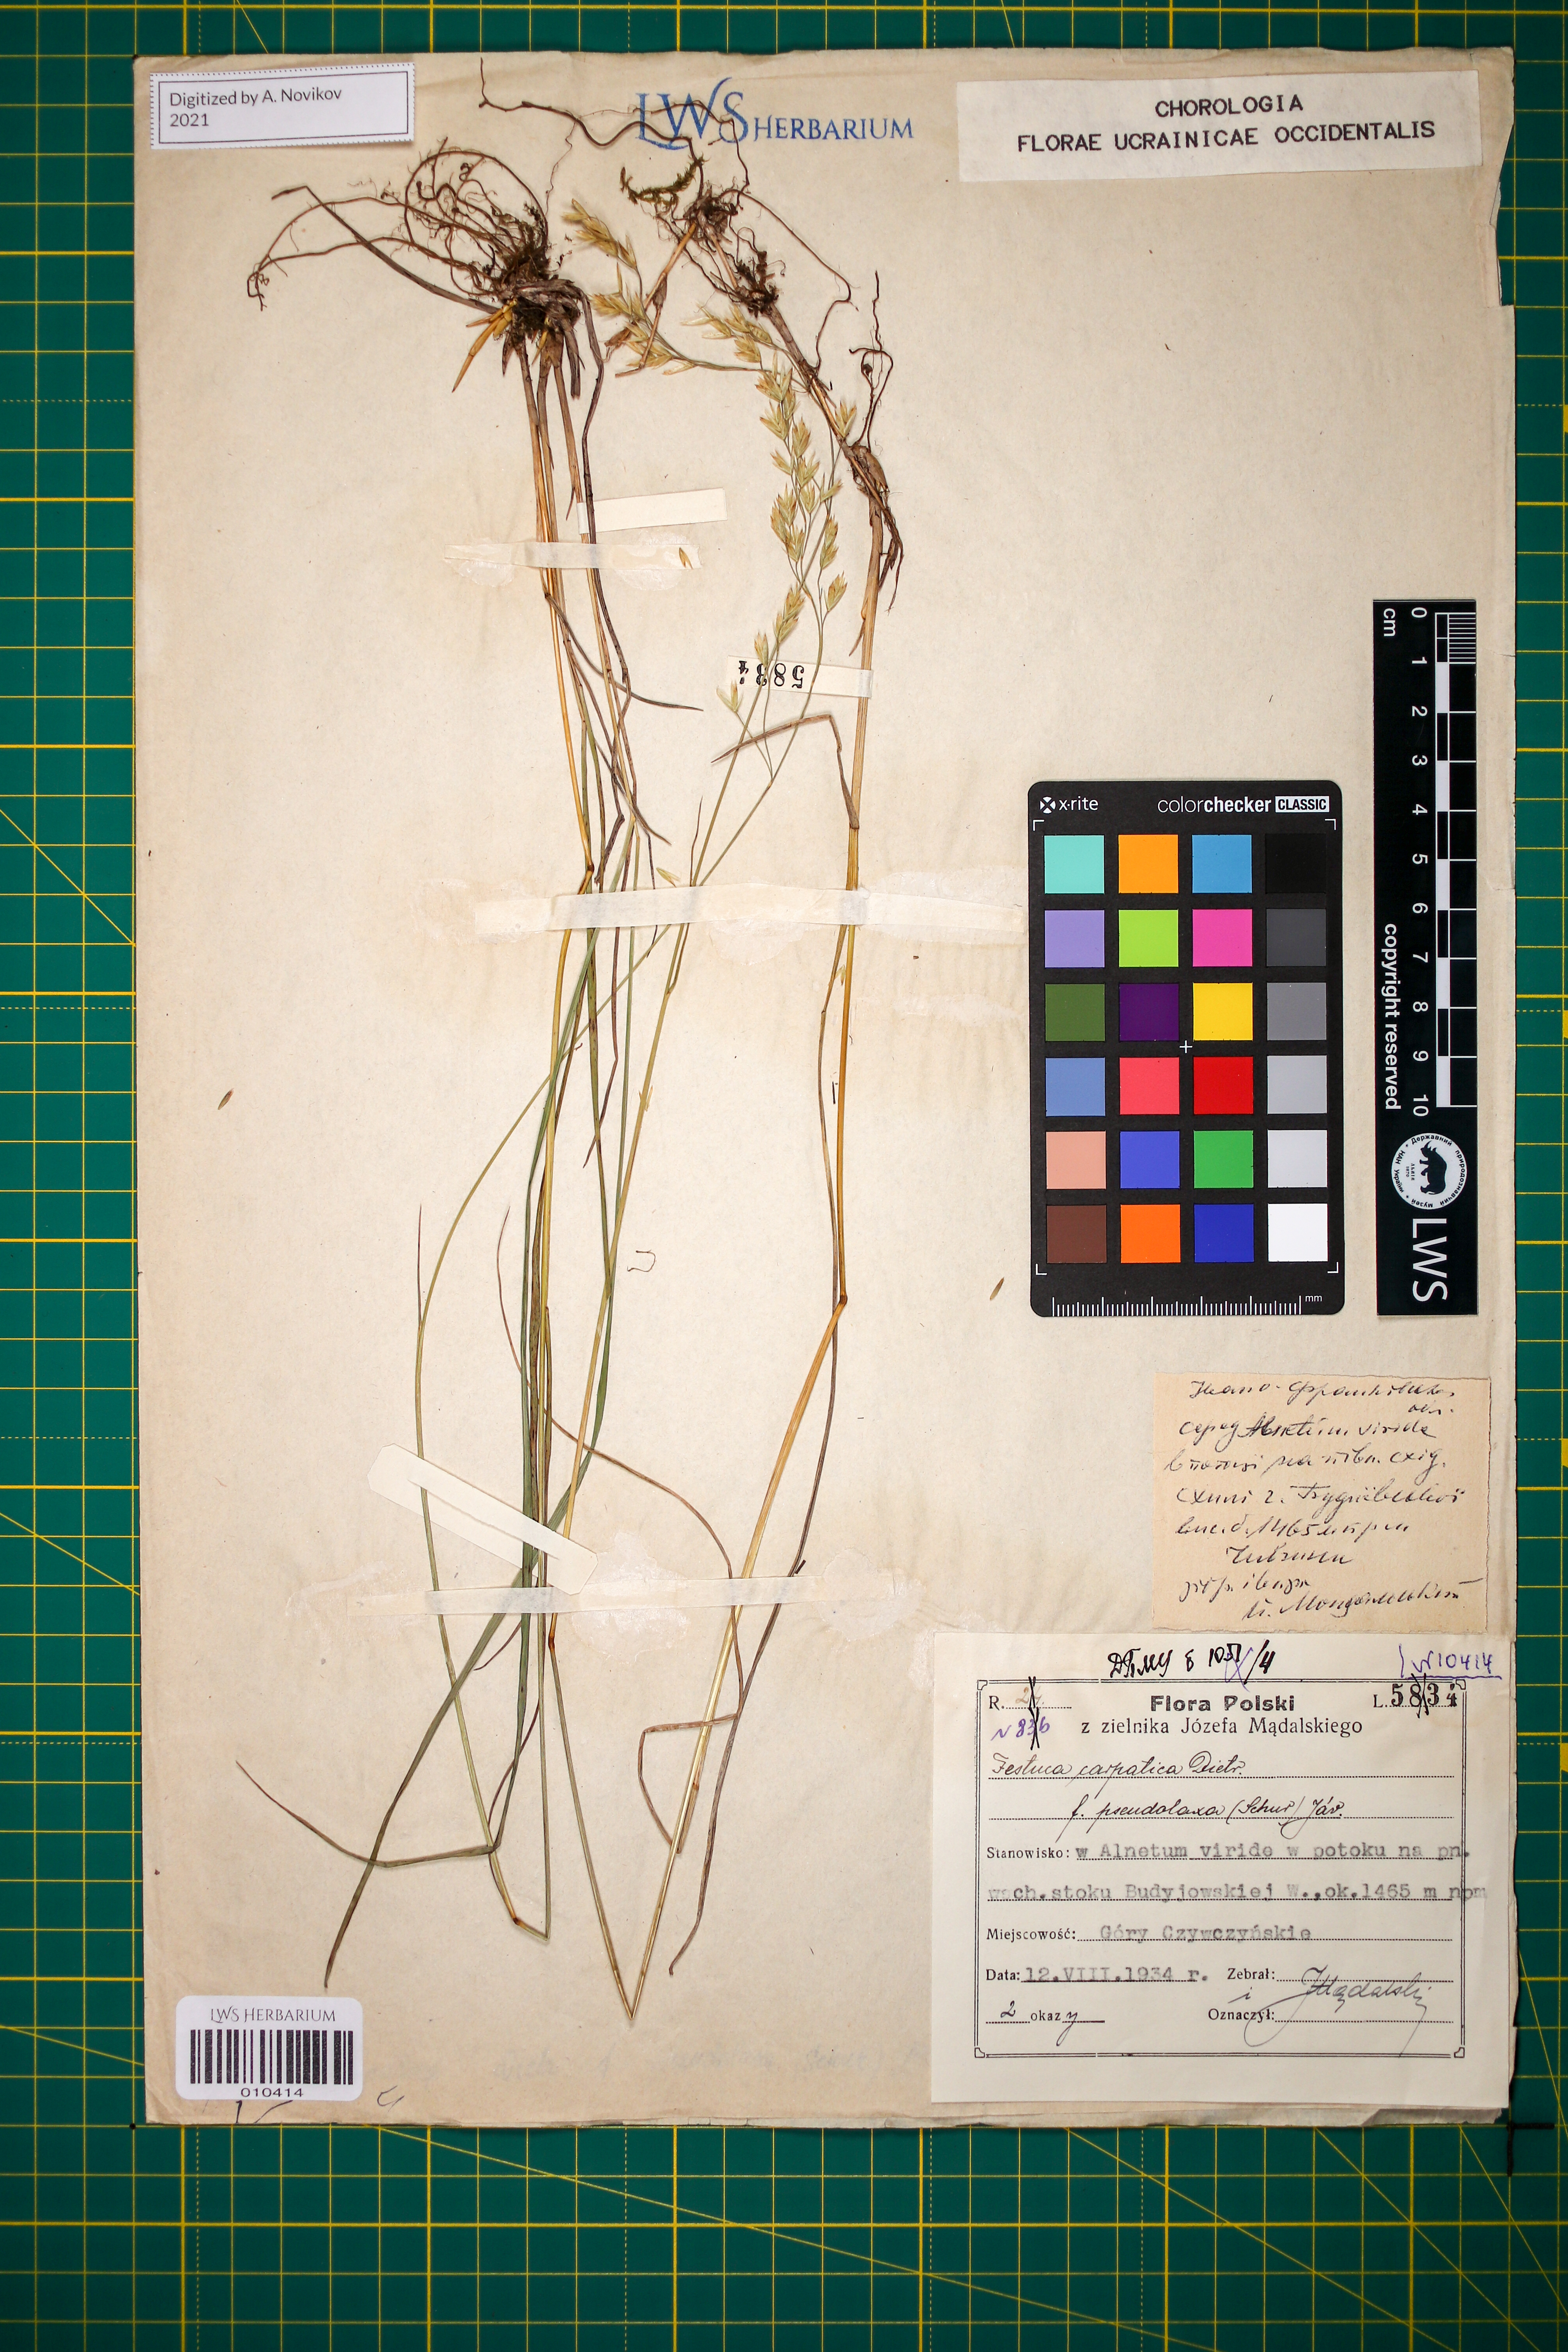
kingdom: Plantae
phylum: Tracheophyta
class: Liliopsida
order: Poales
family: Poaceae
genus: Festuca
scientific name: Festuca carpatica
